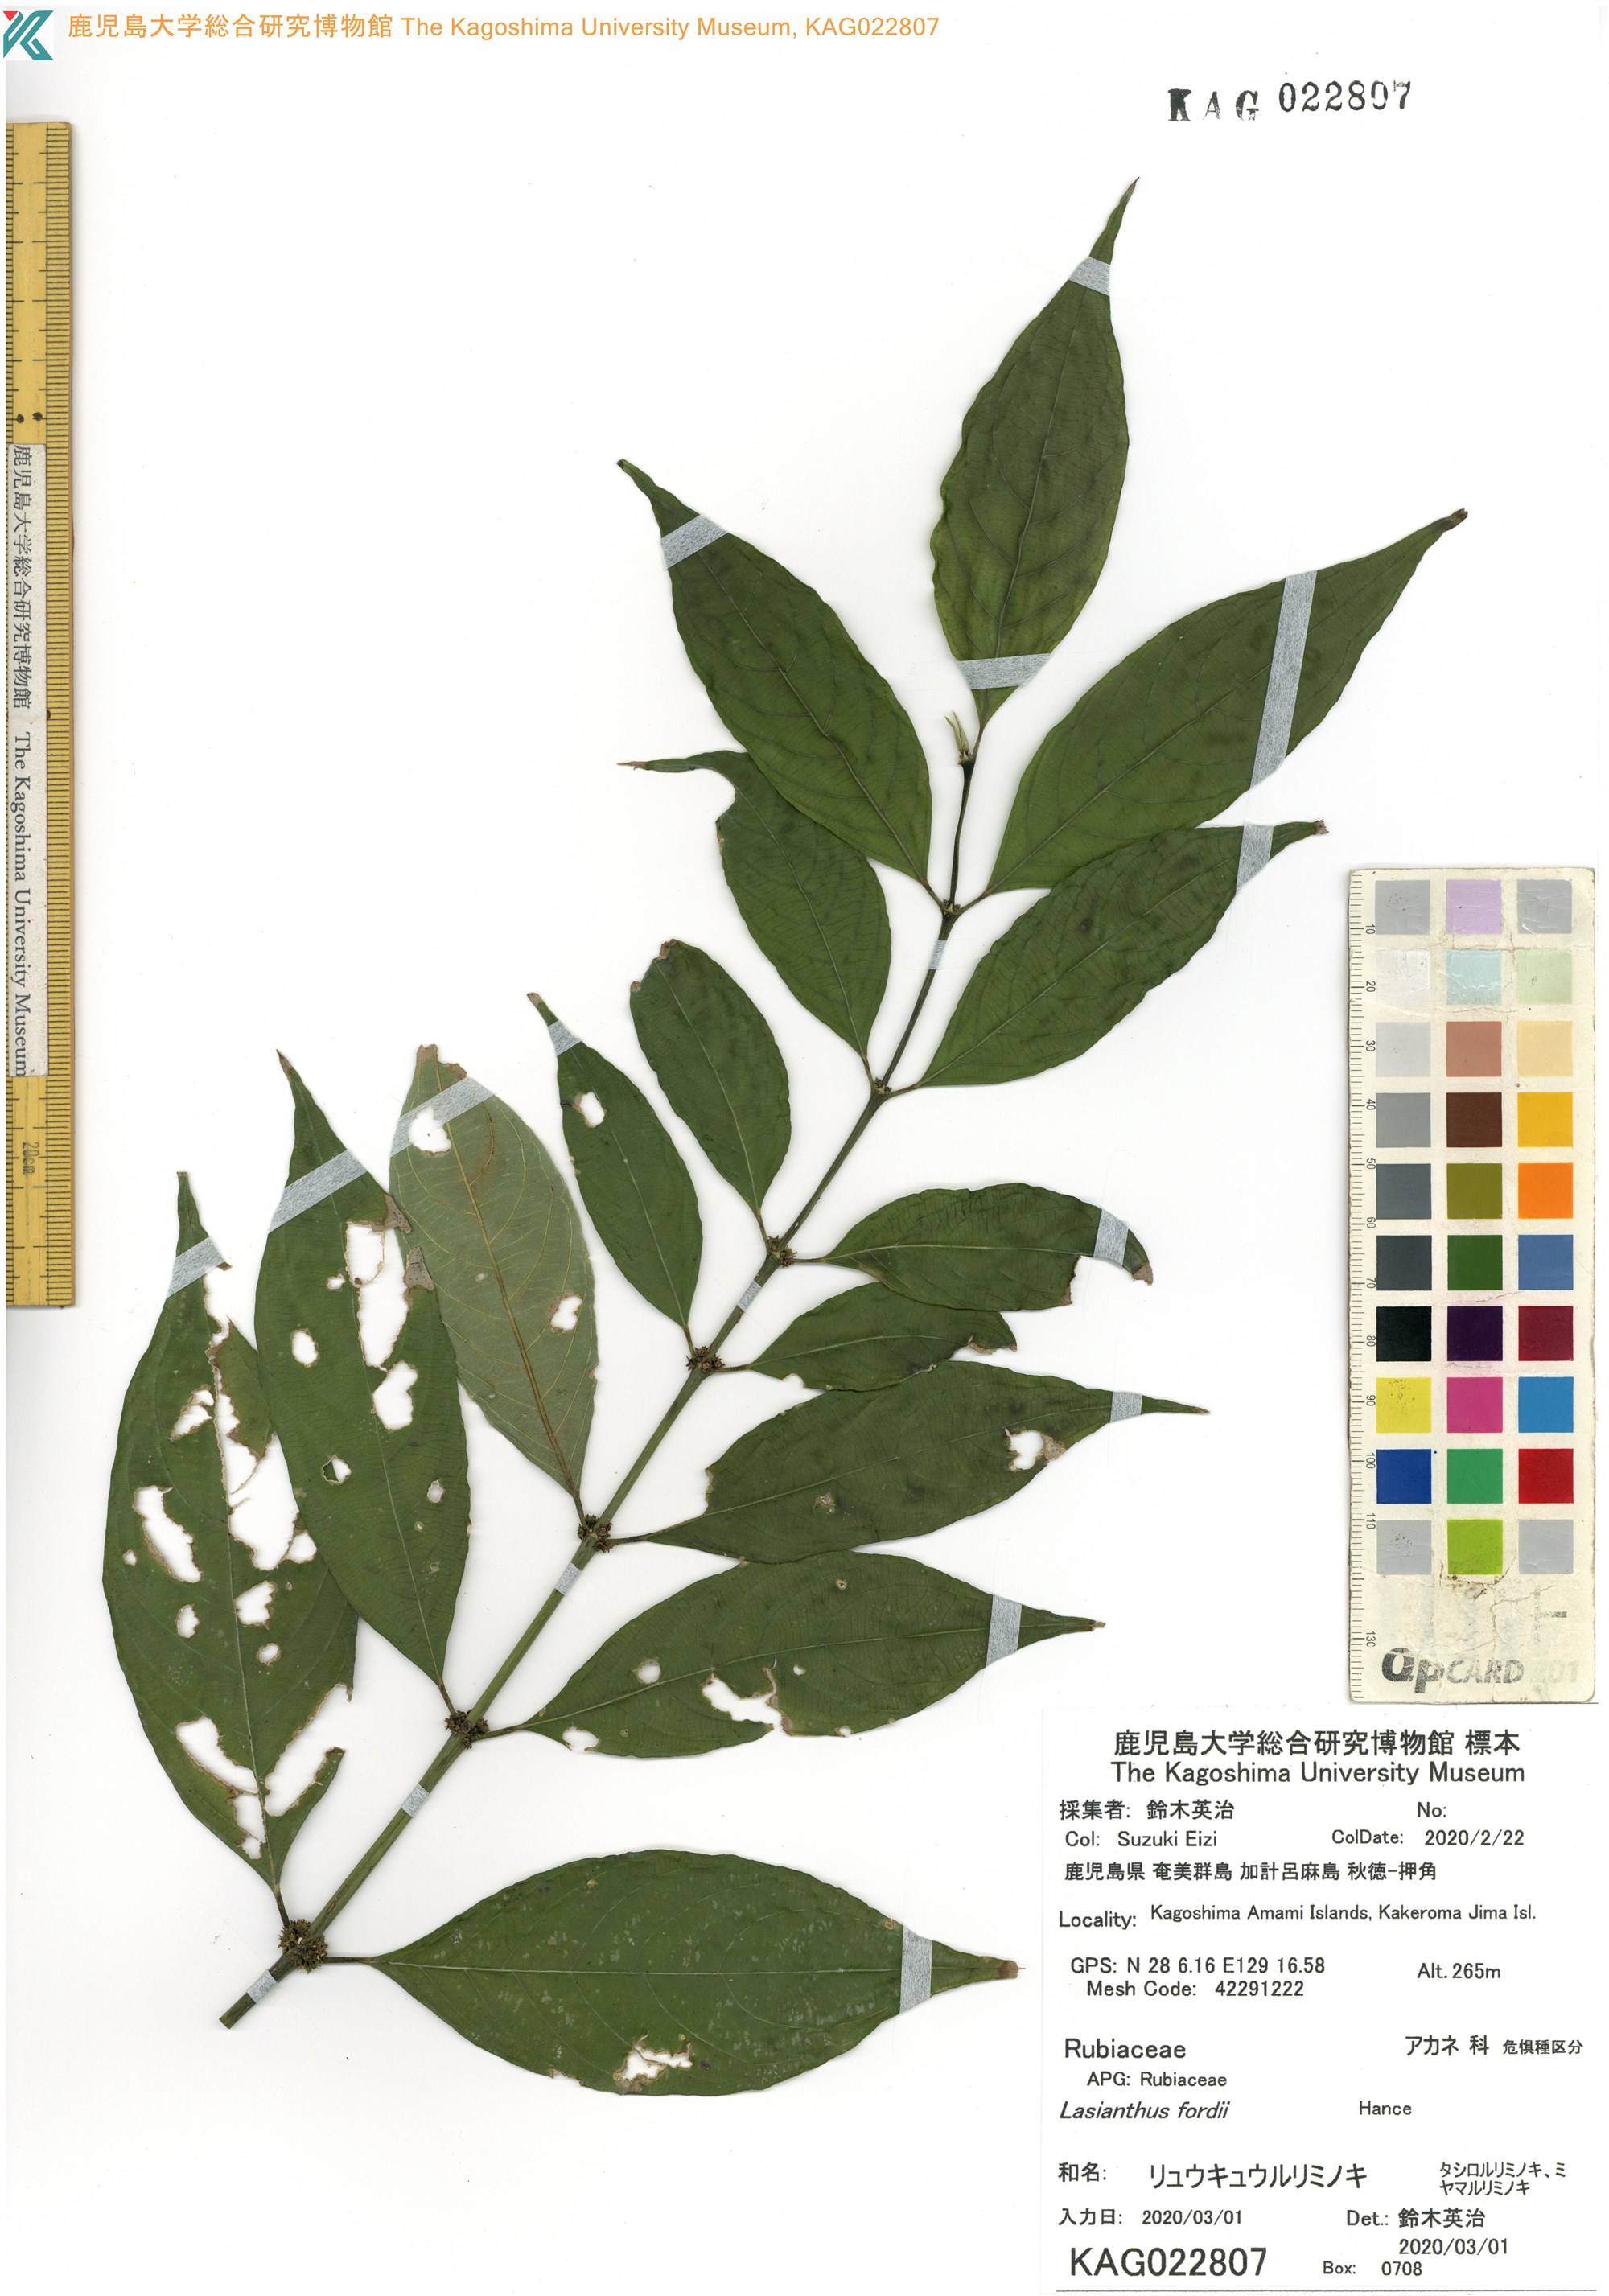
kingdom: Plantae
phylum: Tracheophyta
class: Magnoliopsida
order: Gentianales
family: Rubiaceae
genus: Lasianthus
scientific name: Lasianthus fordii
